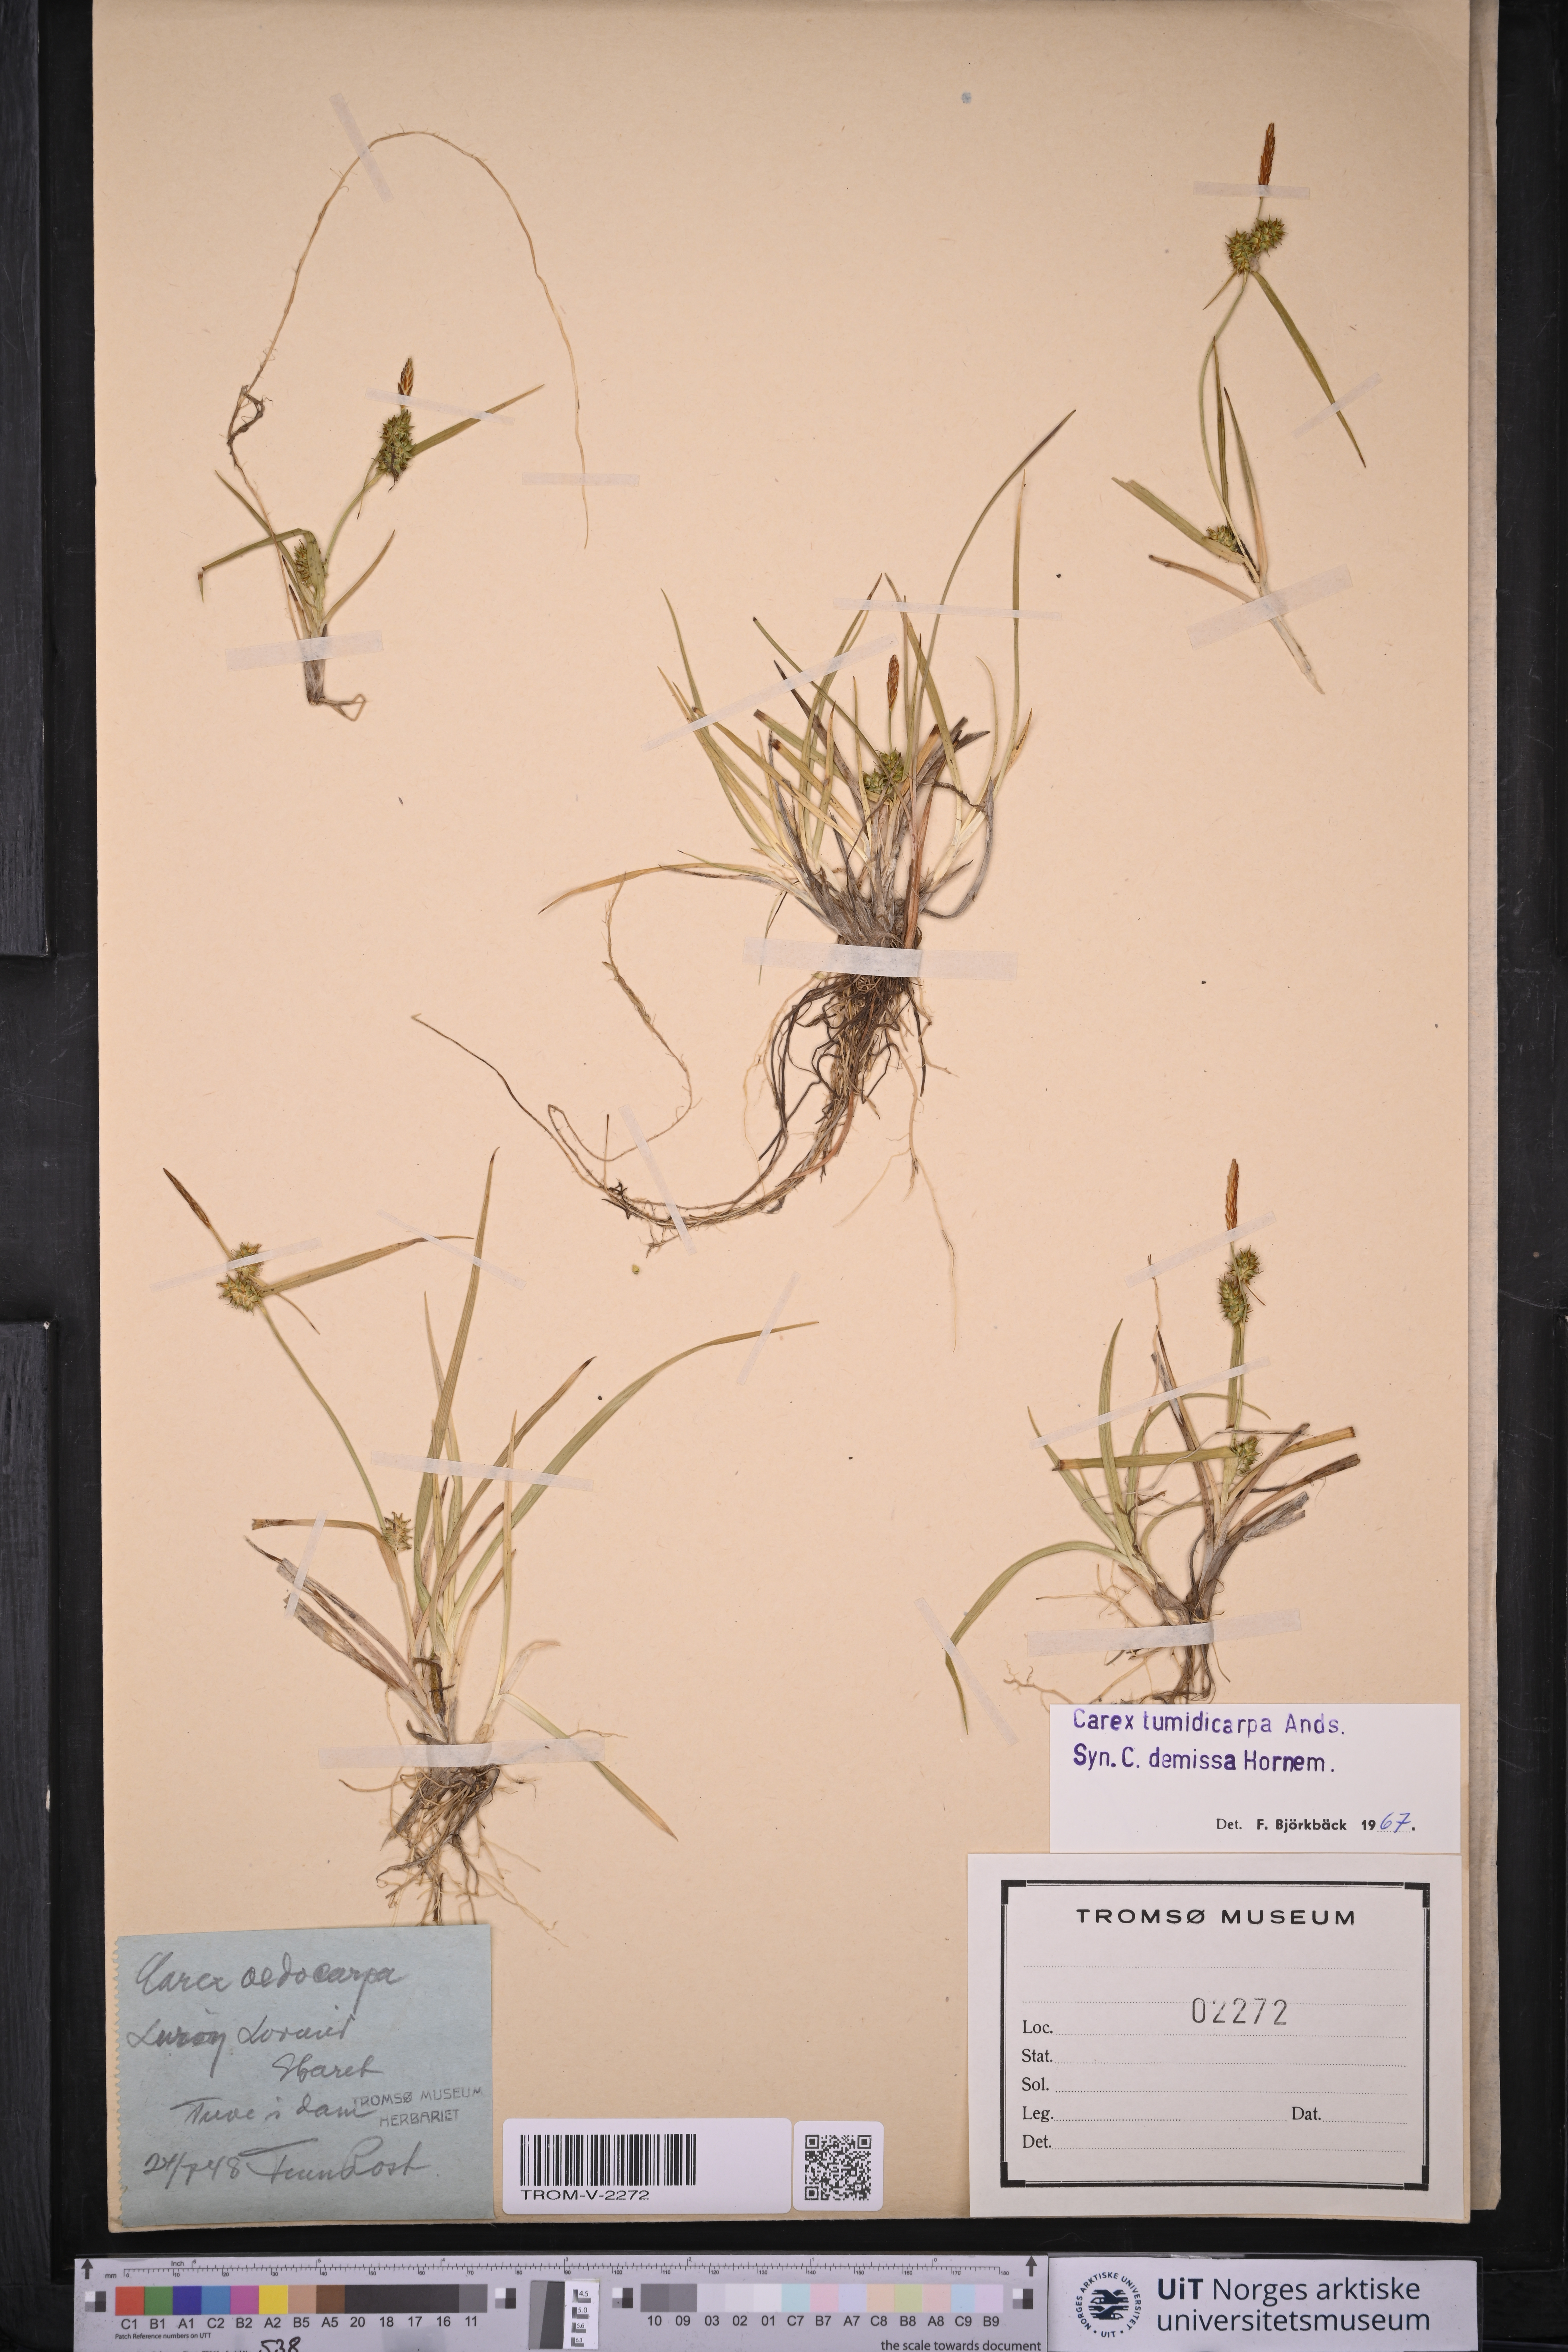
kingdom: Plantae
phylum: Tracheophyta
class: Liliopsida
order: Poales
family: Cyperaceae
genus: Carex
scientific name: Carex demissa
